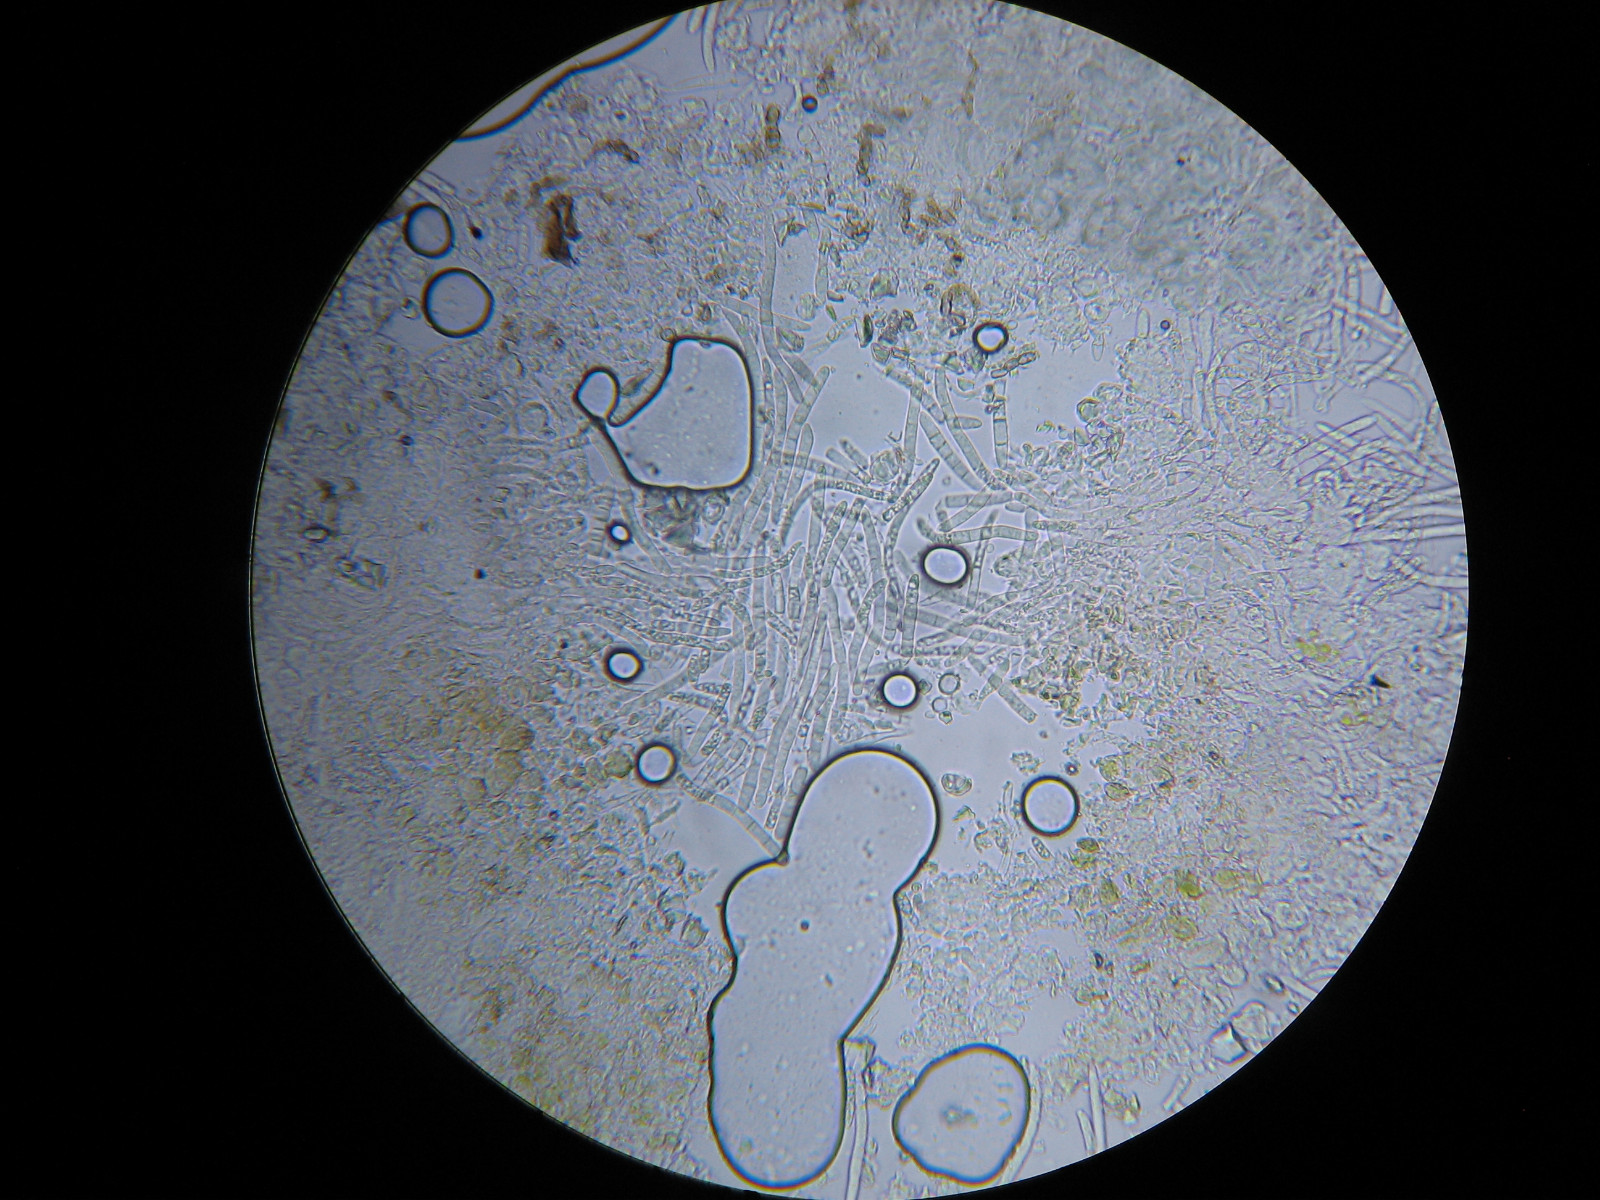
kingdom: Fungi
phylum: Ascomycota
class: Sordariomycetes
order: Hypocreales
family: Nectriaceae
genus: Fusarium
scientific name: Fusarium
